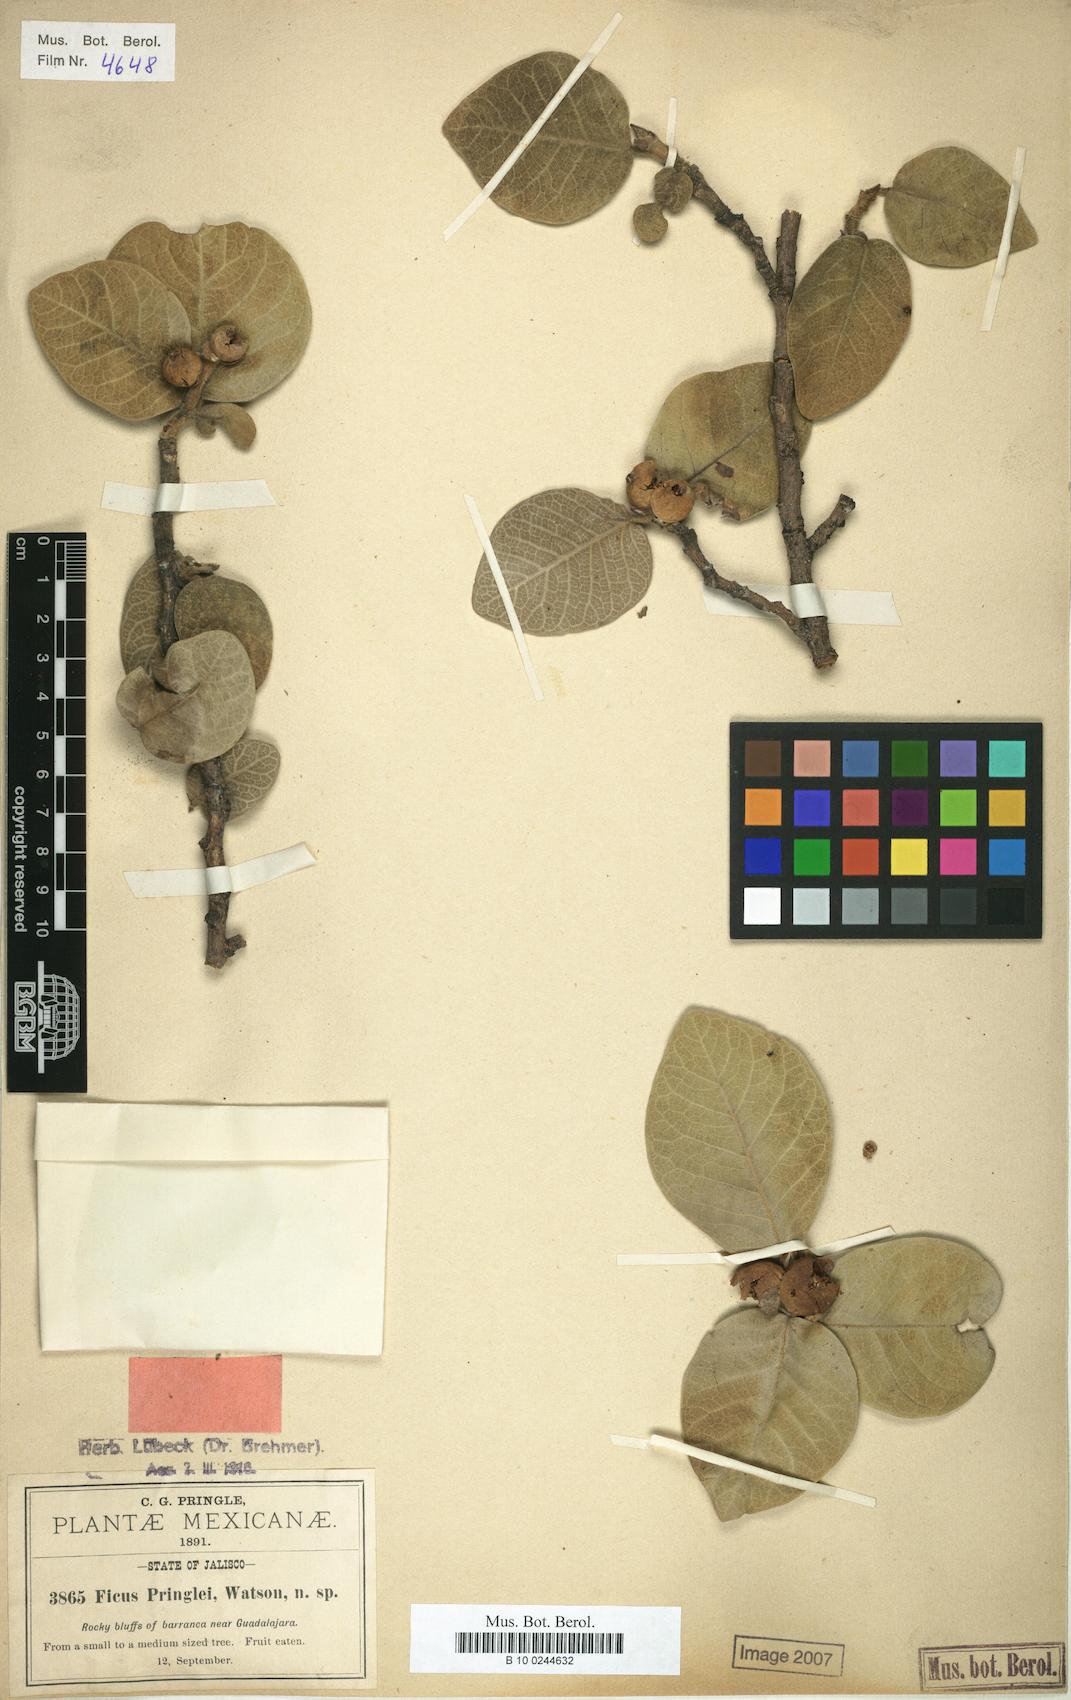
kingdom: Plantae
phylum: Tracheophyta
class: Magnoliopsida
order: Rosales
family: Moraceae
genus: Ficus
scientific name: Ficus pringlei
